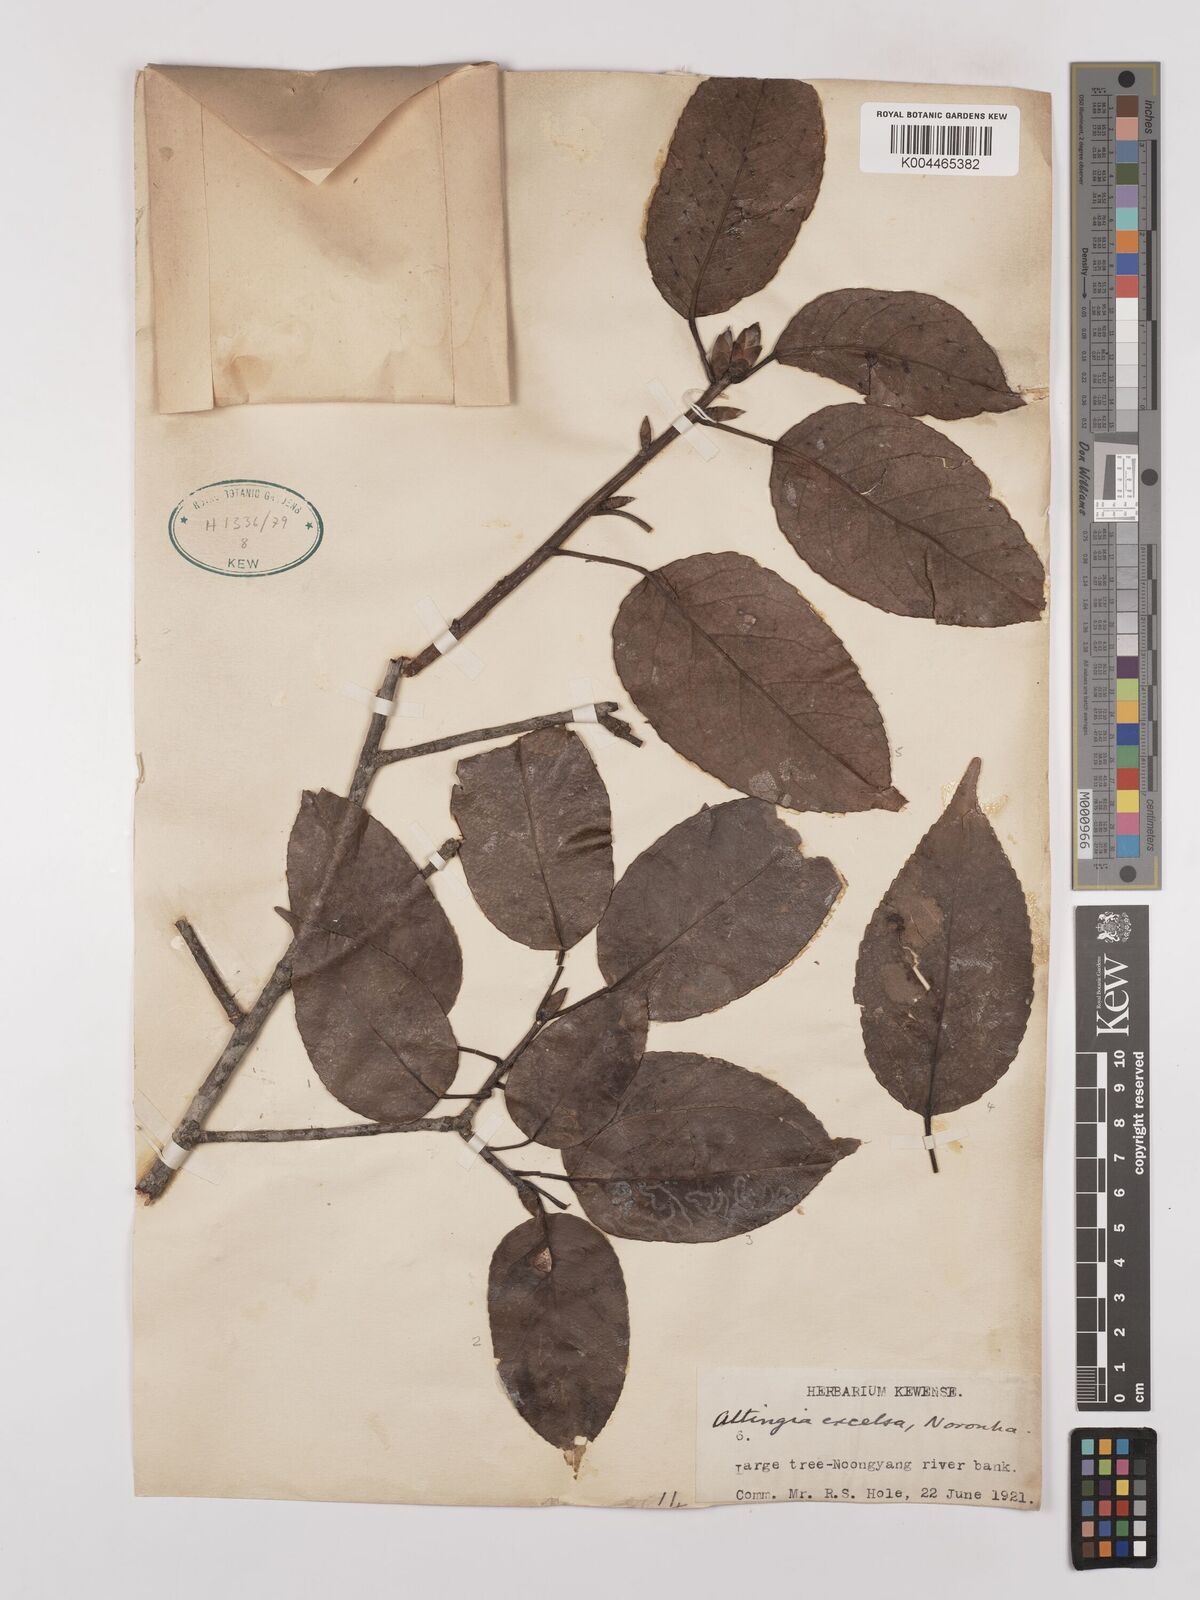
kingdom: Plantae
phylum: Tracheophyta
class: Magnoliopsida
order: Saxifragales
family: Altingiaceae
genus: Liquidambar
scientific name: Liquidambar excelsa
